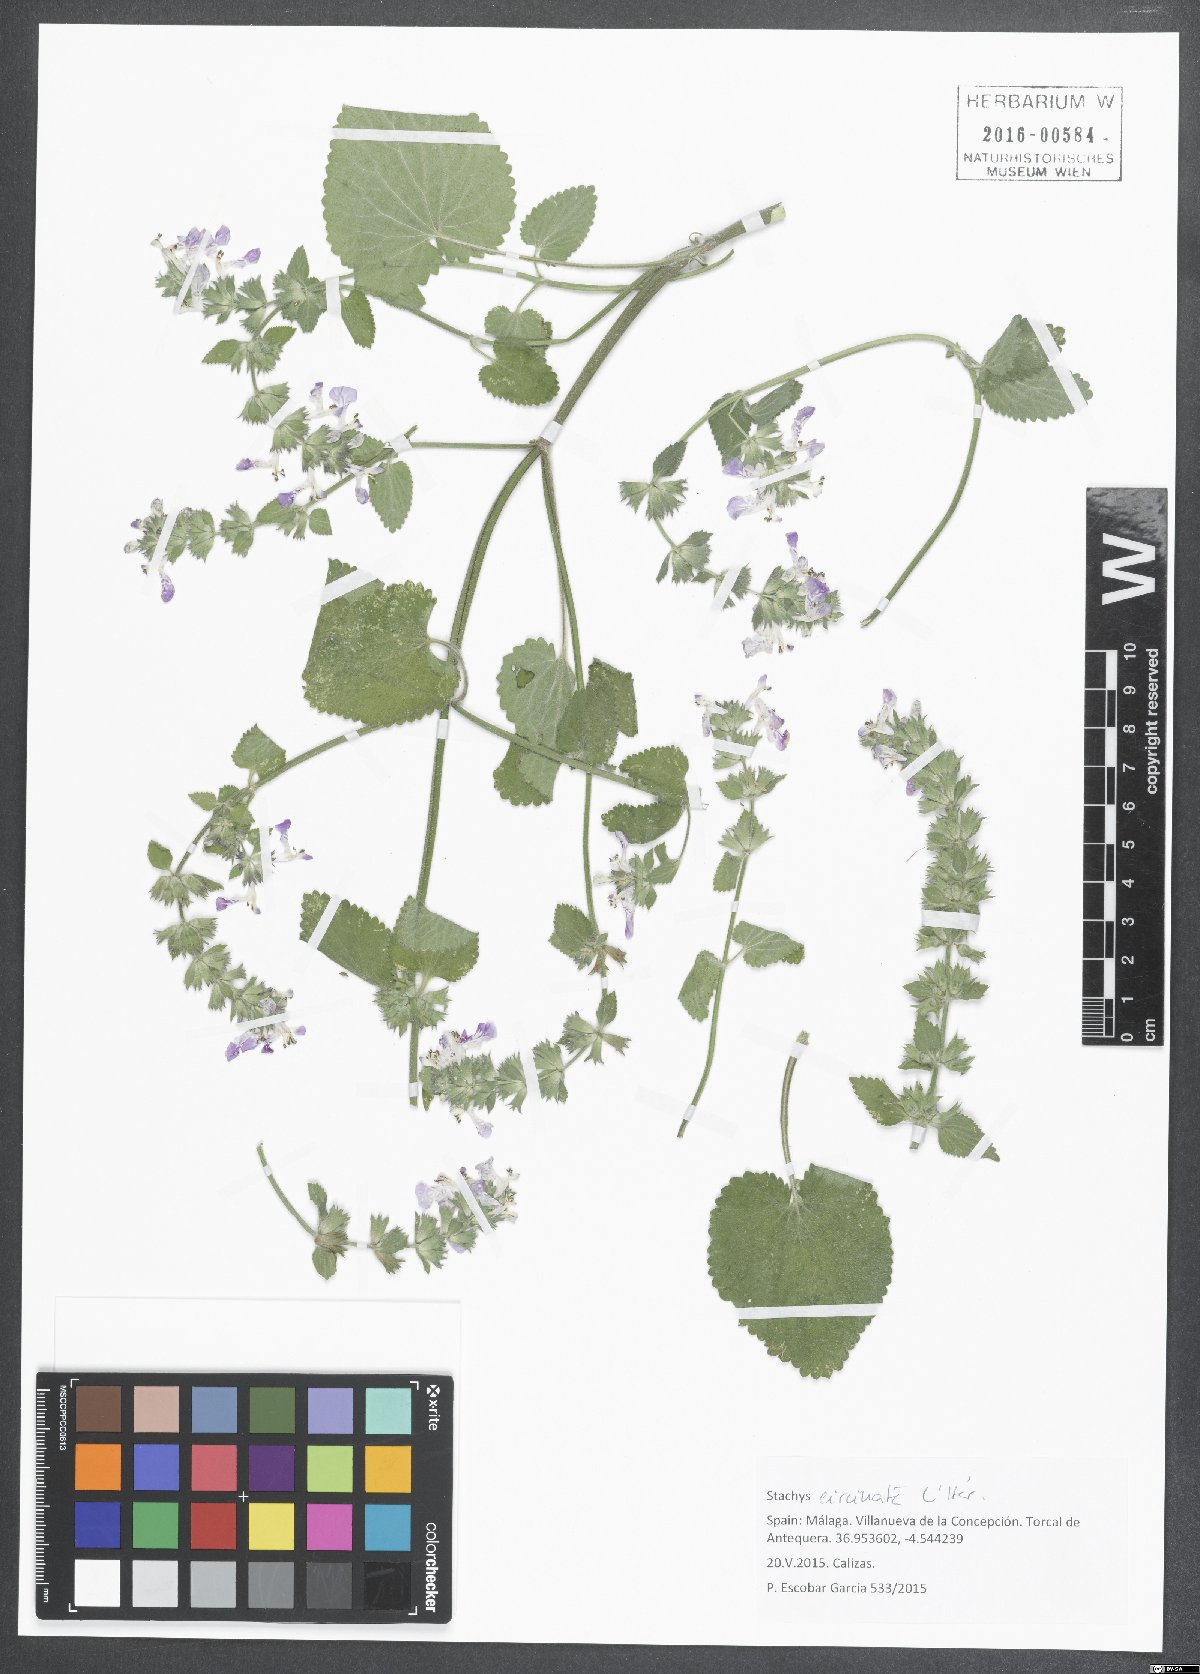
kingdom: Plantae
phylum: Tracheophyta
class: Magnoliopsida
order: Lamiales
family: Lamiaceae
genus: Stachys
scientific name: Stachys circinata
